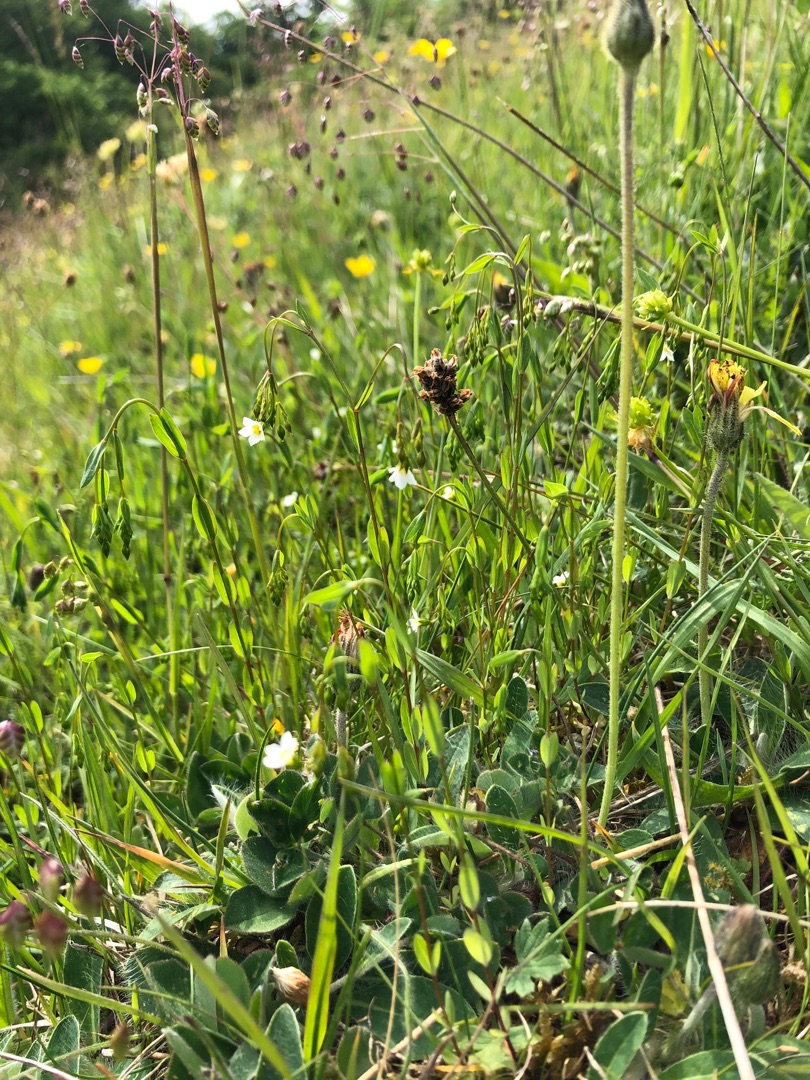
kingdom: Plantae
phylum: Tracheophyta
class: Magnoliopsida
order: Malpighiales
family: Linaceae
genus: Linum
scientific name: Linum catharticum
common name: Vild hør
